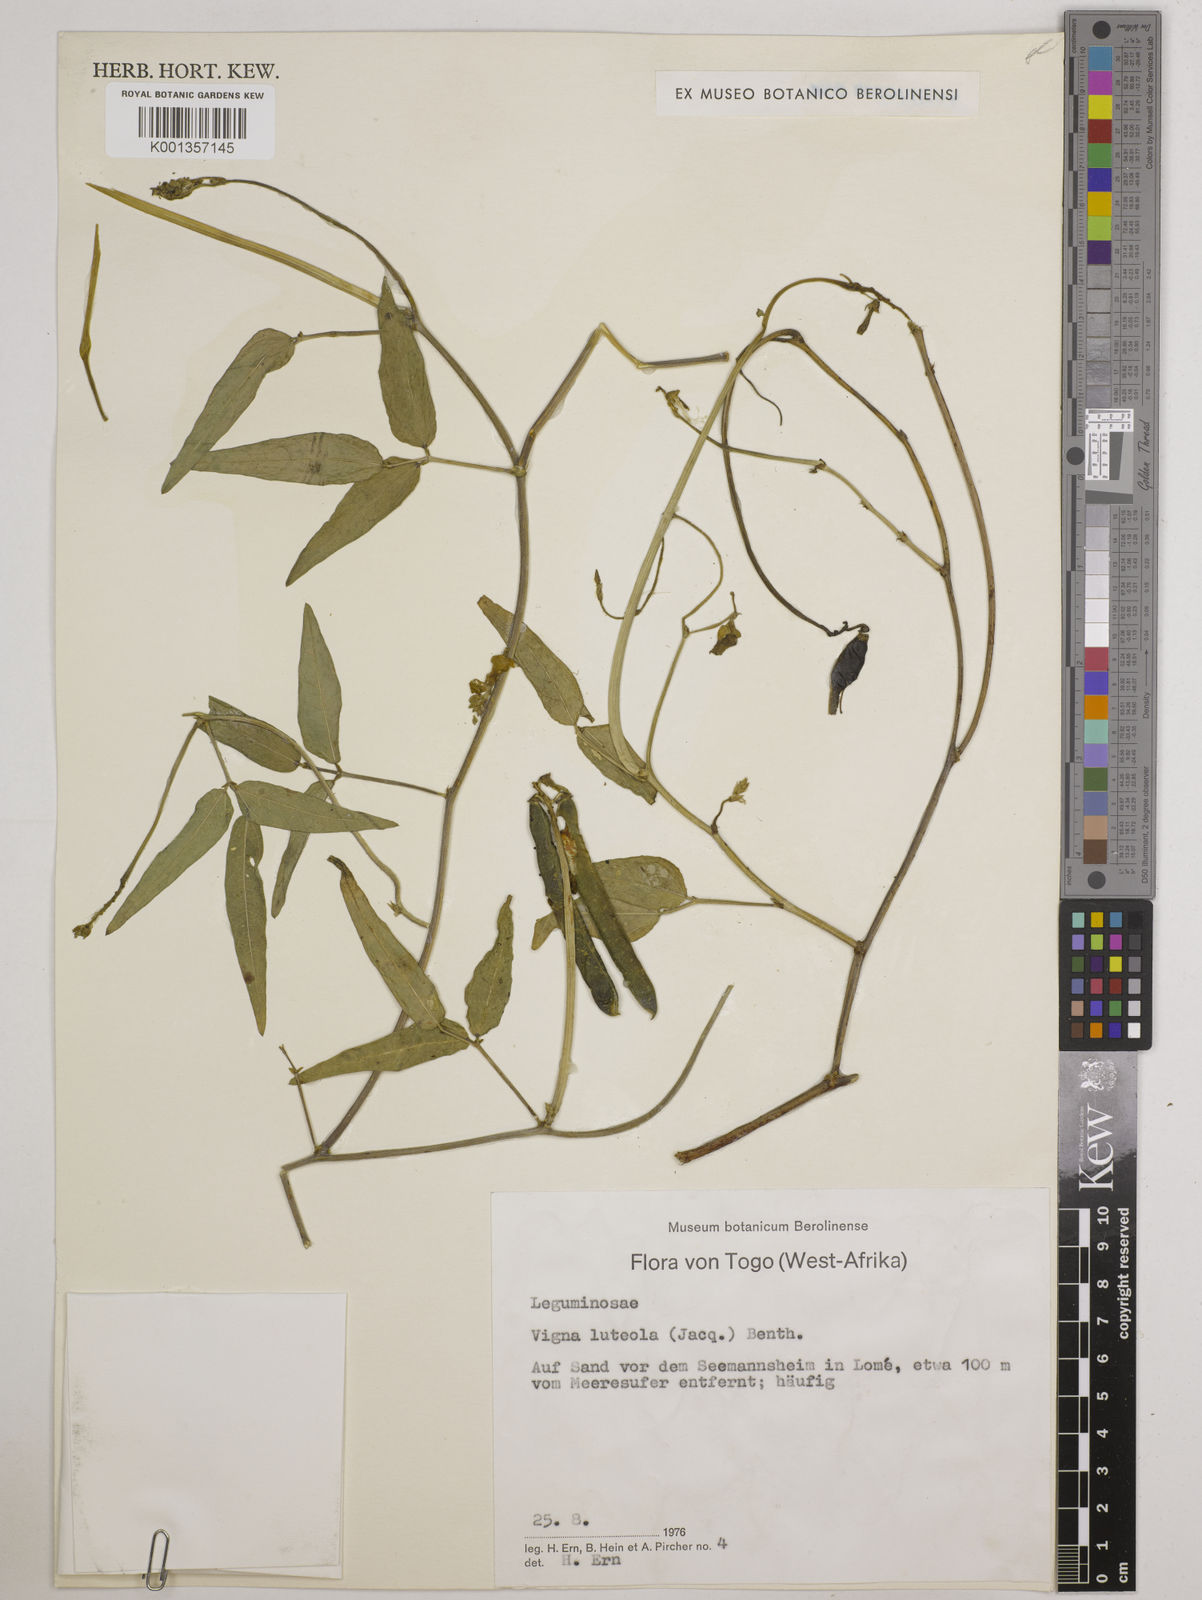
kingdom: Plantae
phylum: Tracheophyta
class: Magnoliopsida
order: Fabales
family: Fabaceae
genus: Vigna
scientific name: Vigna luteola
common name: Hairypod cowpea
